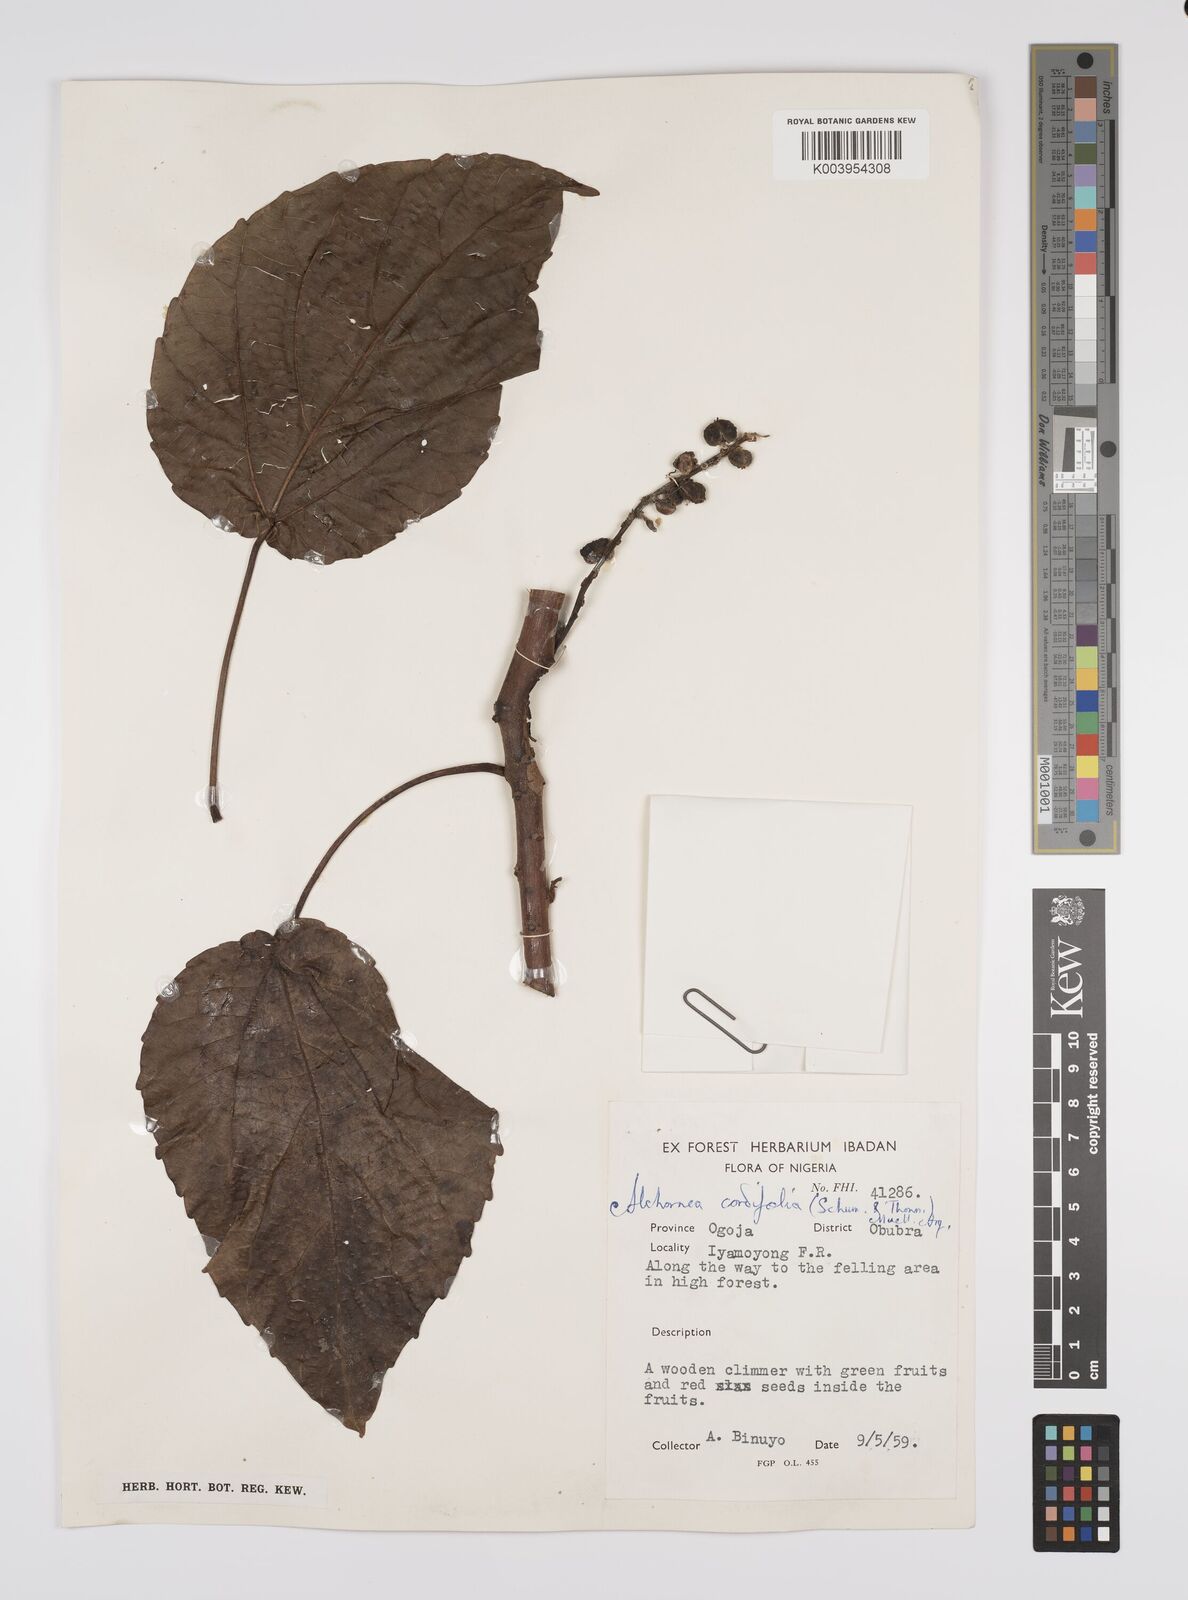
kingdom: Plantae
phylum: Tracheophyta
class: Magnoliopsida
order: Malpighiales
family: Euphorbiaceae
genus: Alchornea
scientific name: Alchornea cordifolia
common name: Christmasbush
